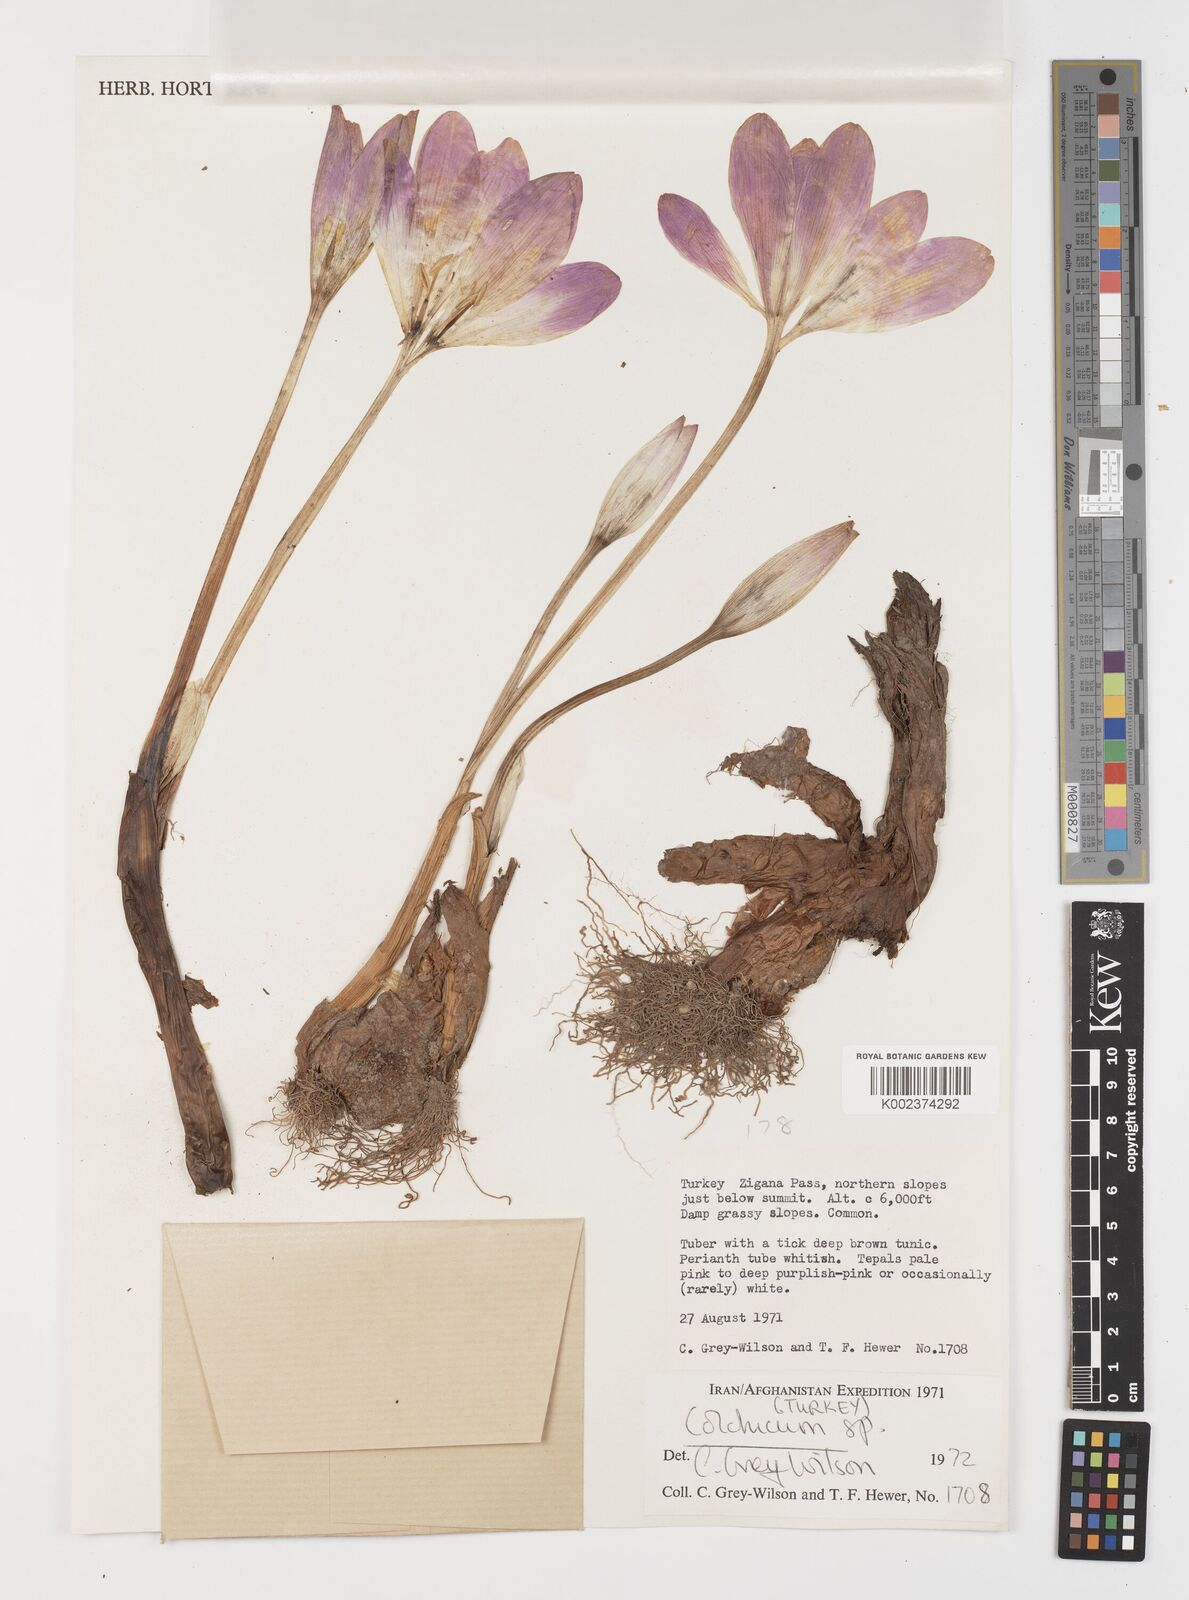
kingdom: Plantae
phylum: Tracheophyta
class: Liliopsida
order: Liliales
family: Colchicaceae
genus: Colchicum
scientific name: Colchicum
